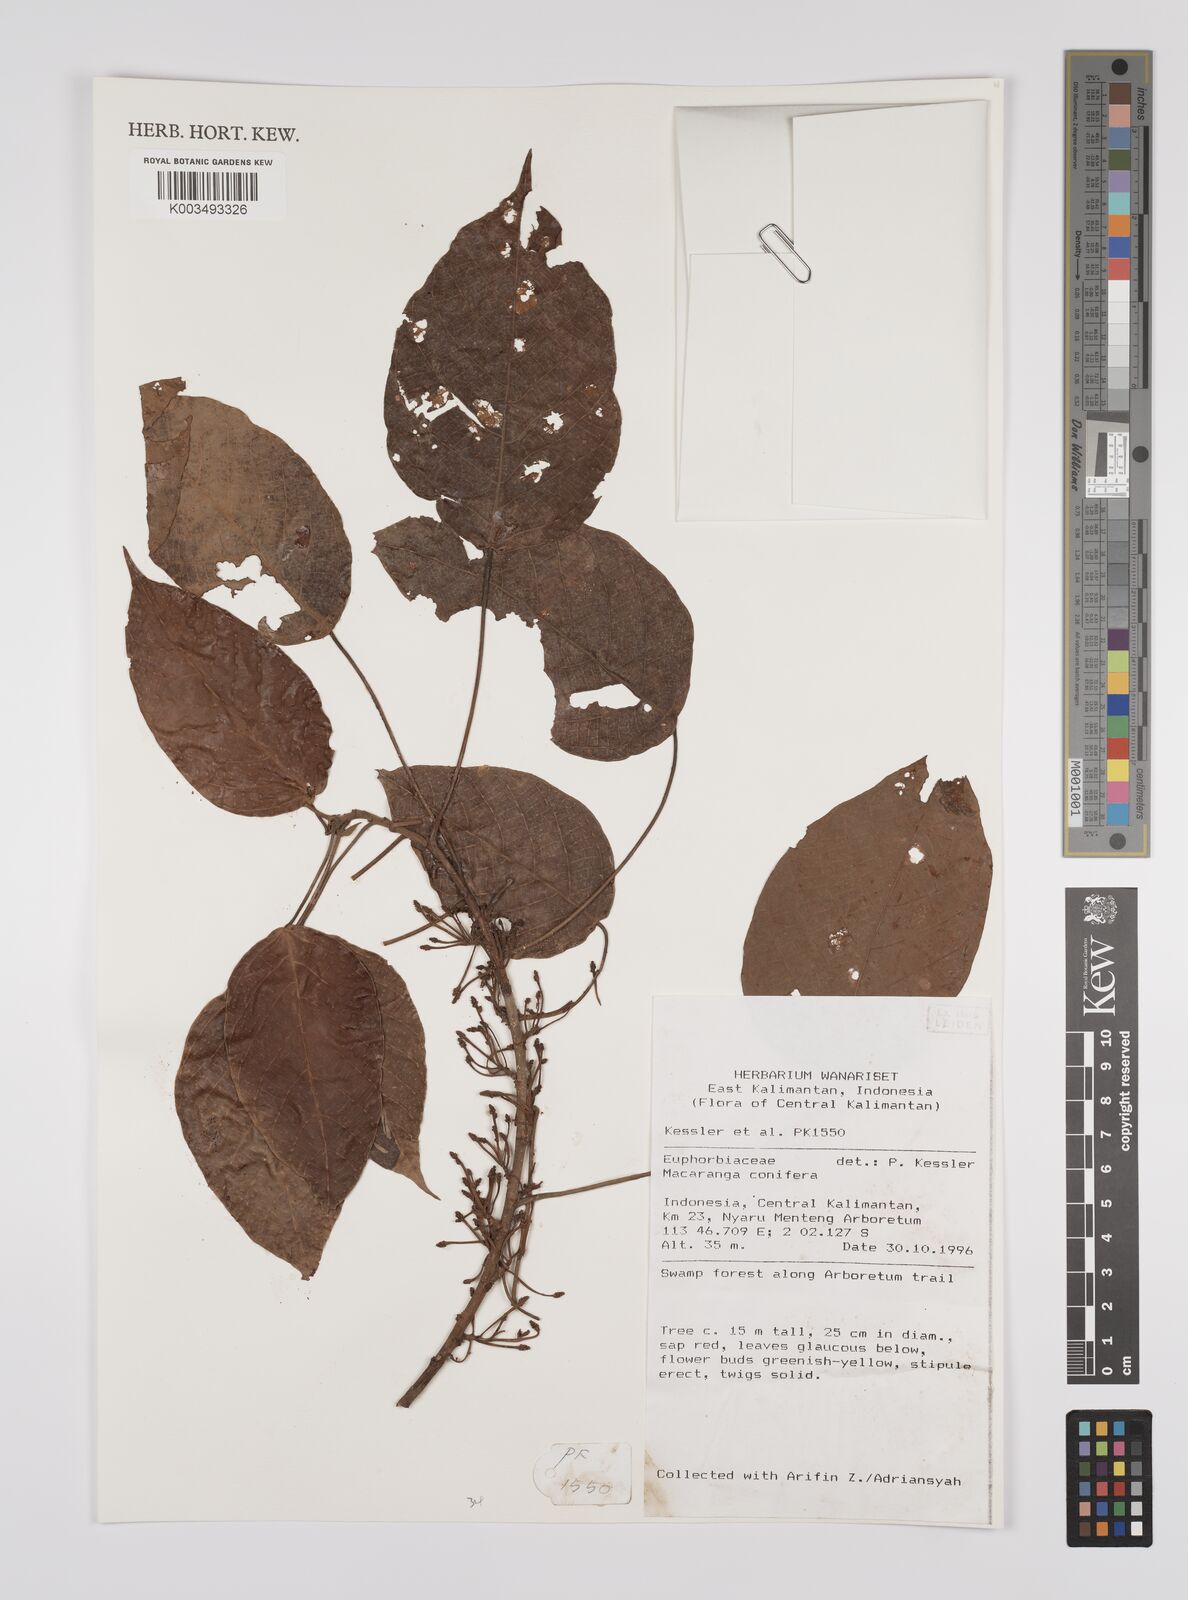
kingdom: Plantae
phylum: Tracheophyta
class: Magnoliopsida
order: Malpighiales
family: Euphorbiaceae
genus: Macaranga
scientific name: Macaranga conifera
